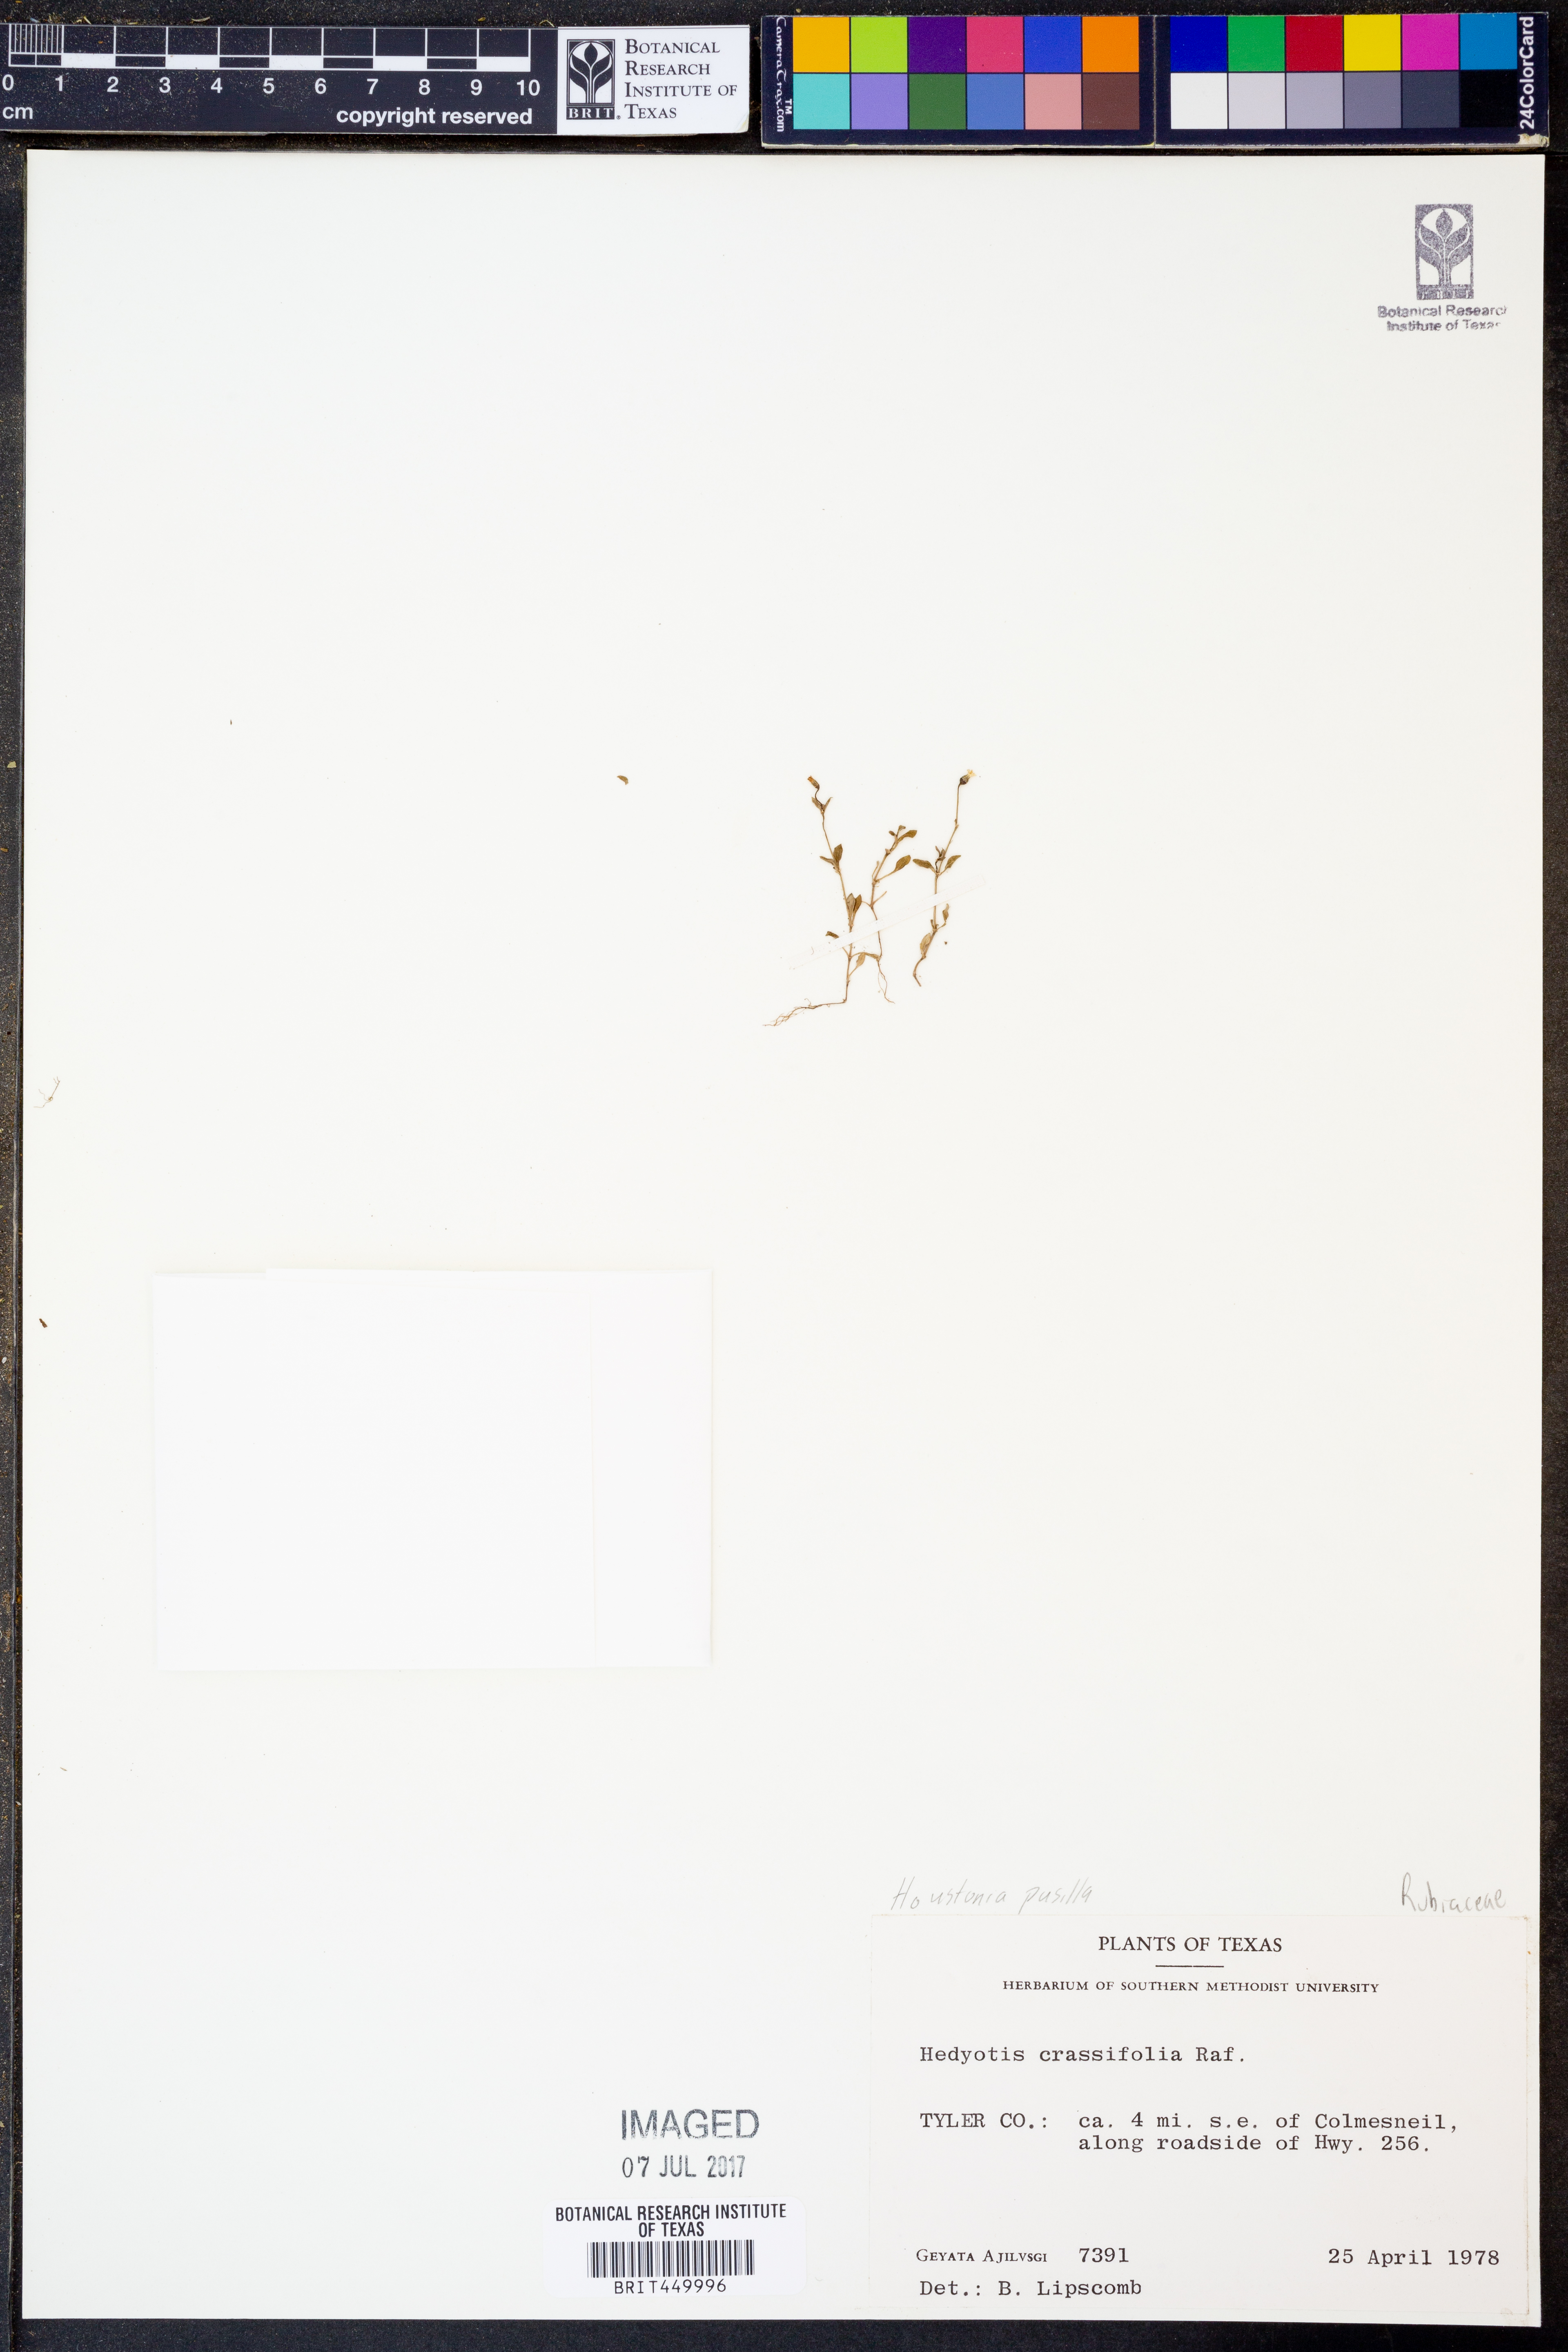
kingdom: Plantae
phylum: Tracheophyta
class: Magnoliopsida
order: Gentianales
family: Rubiaceae
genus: Houstonia
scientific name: Houstonia pusilla
